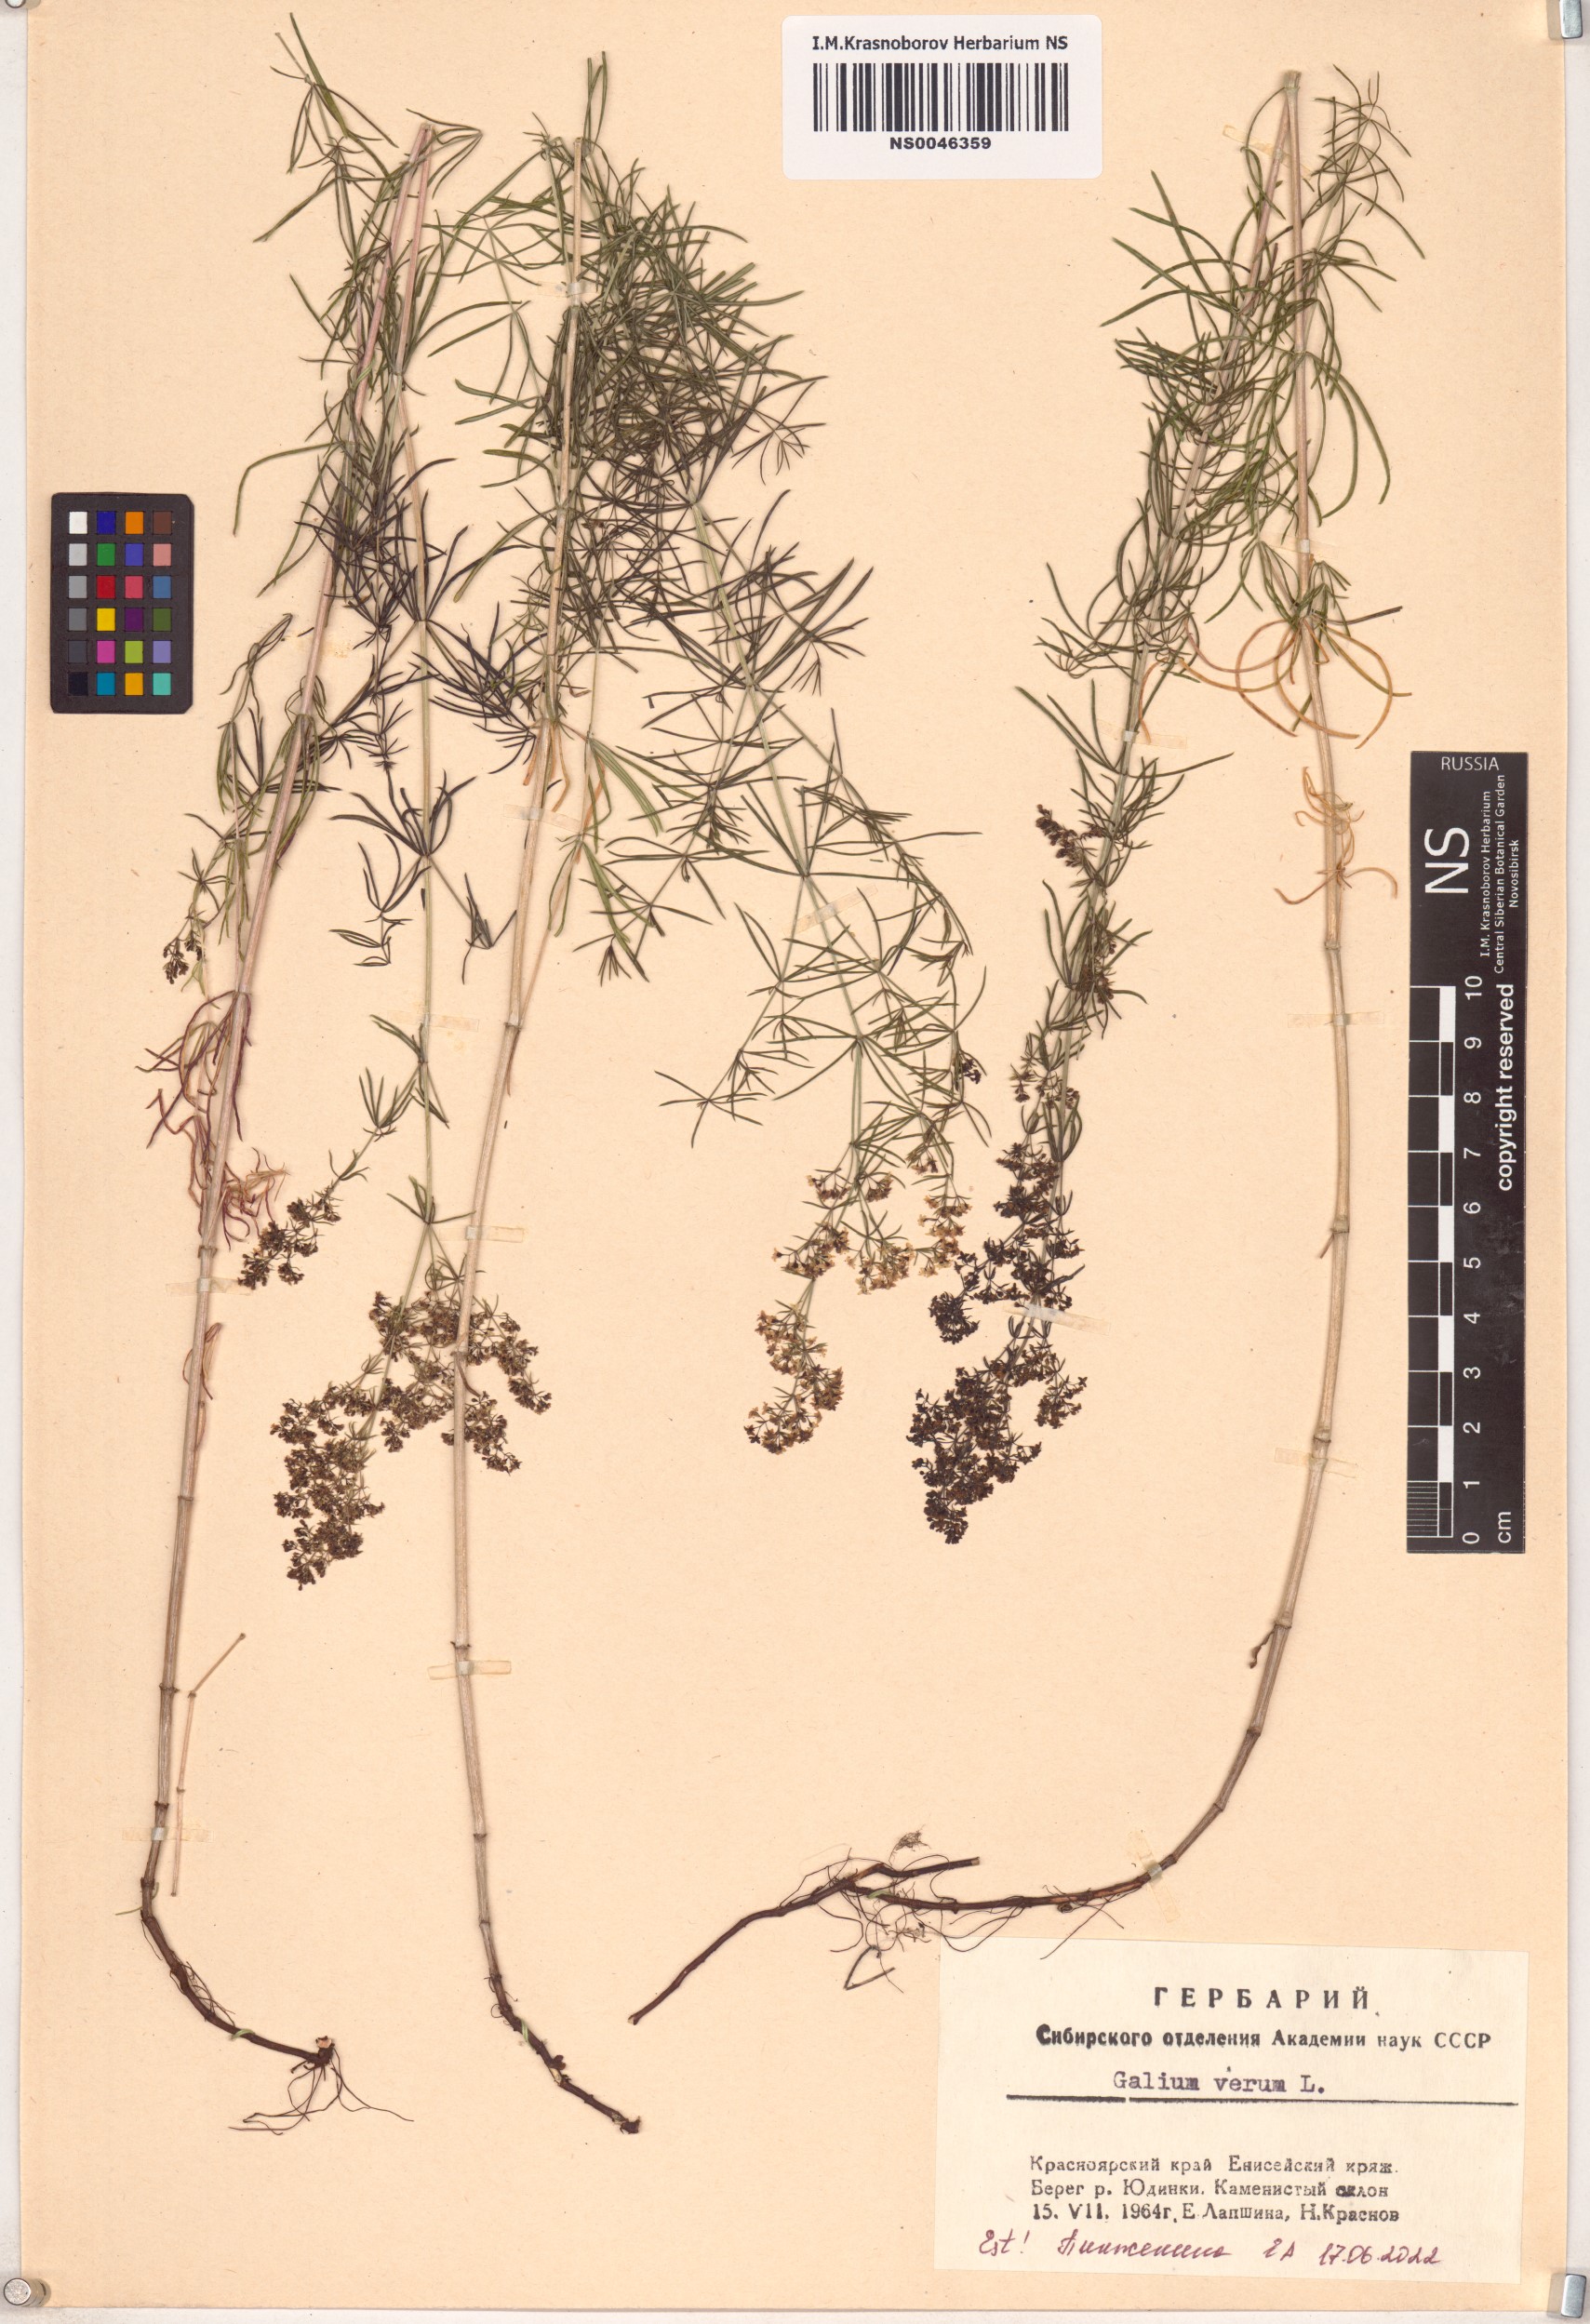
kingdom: Plantae
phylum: Tracheophyta
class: Magnoliopsida
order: Gentianales
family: Rubiaceae
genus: Galium
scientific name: Galium verum
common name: Lady's bedstraw
